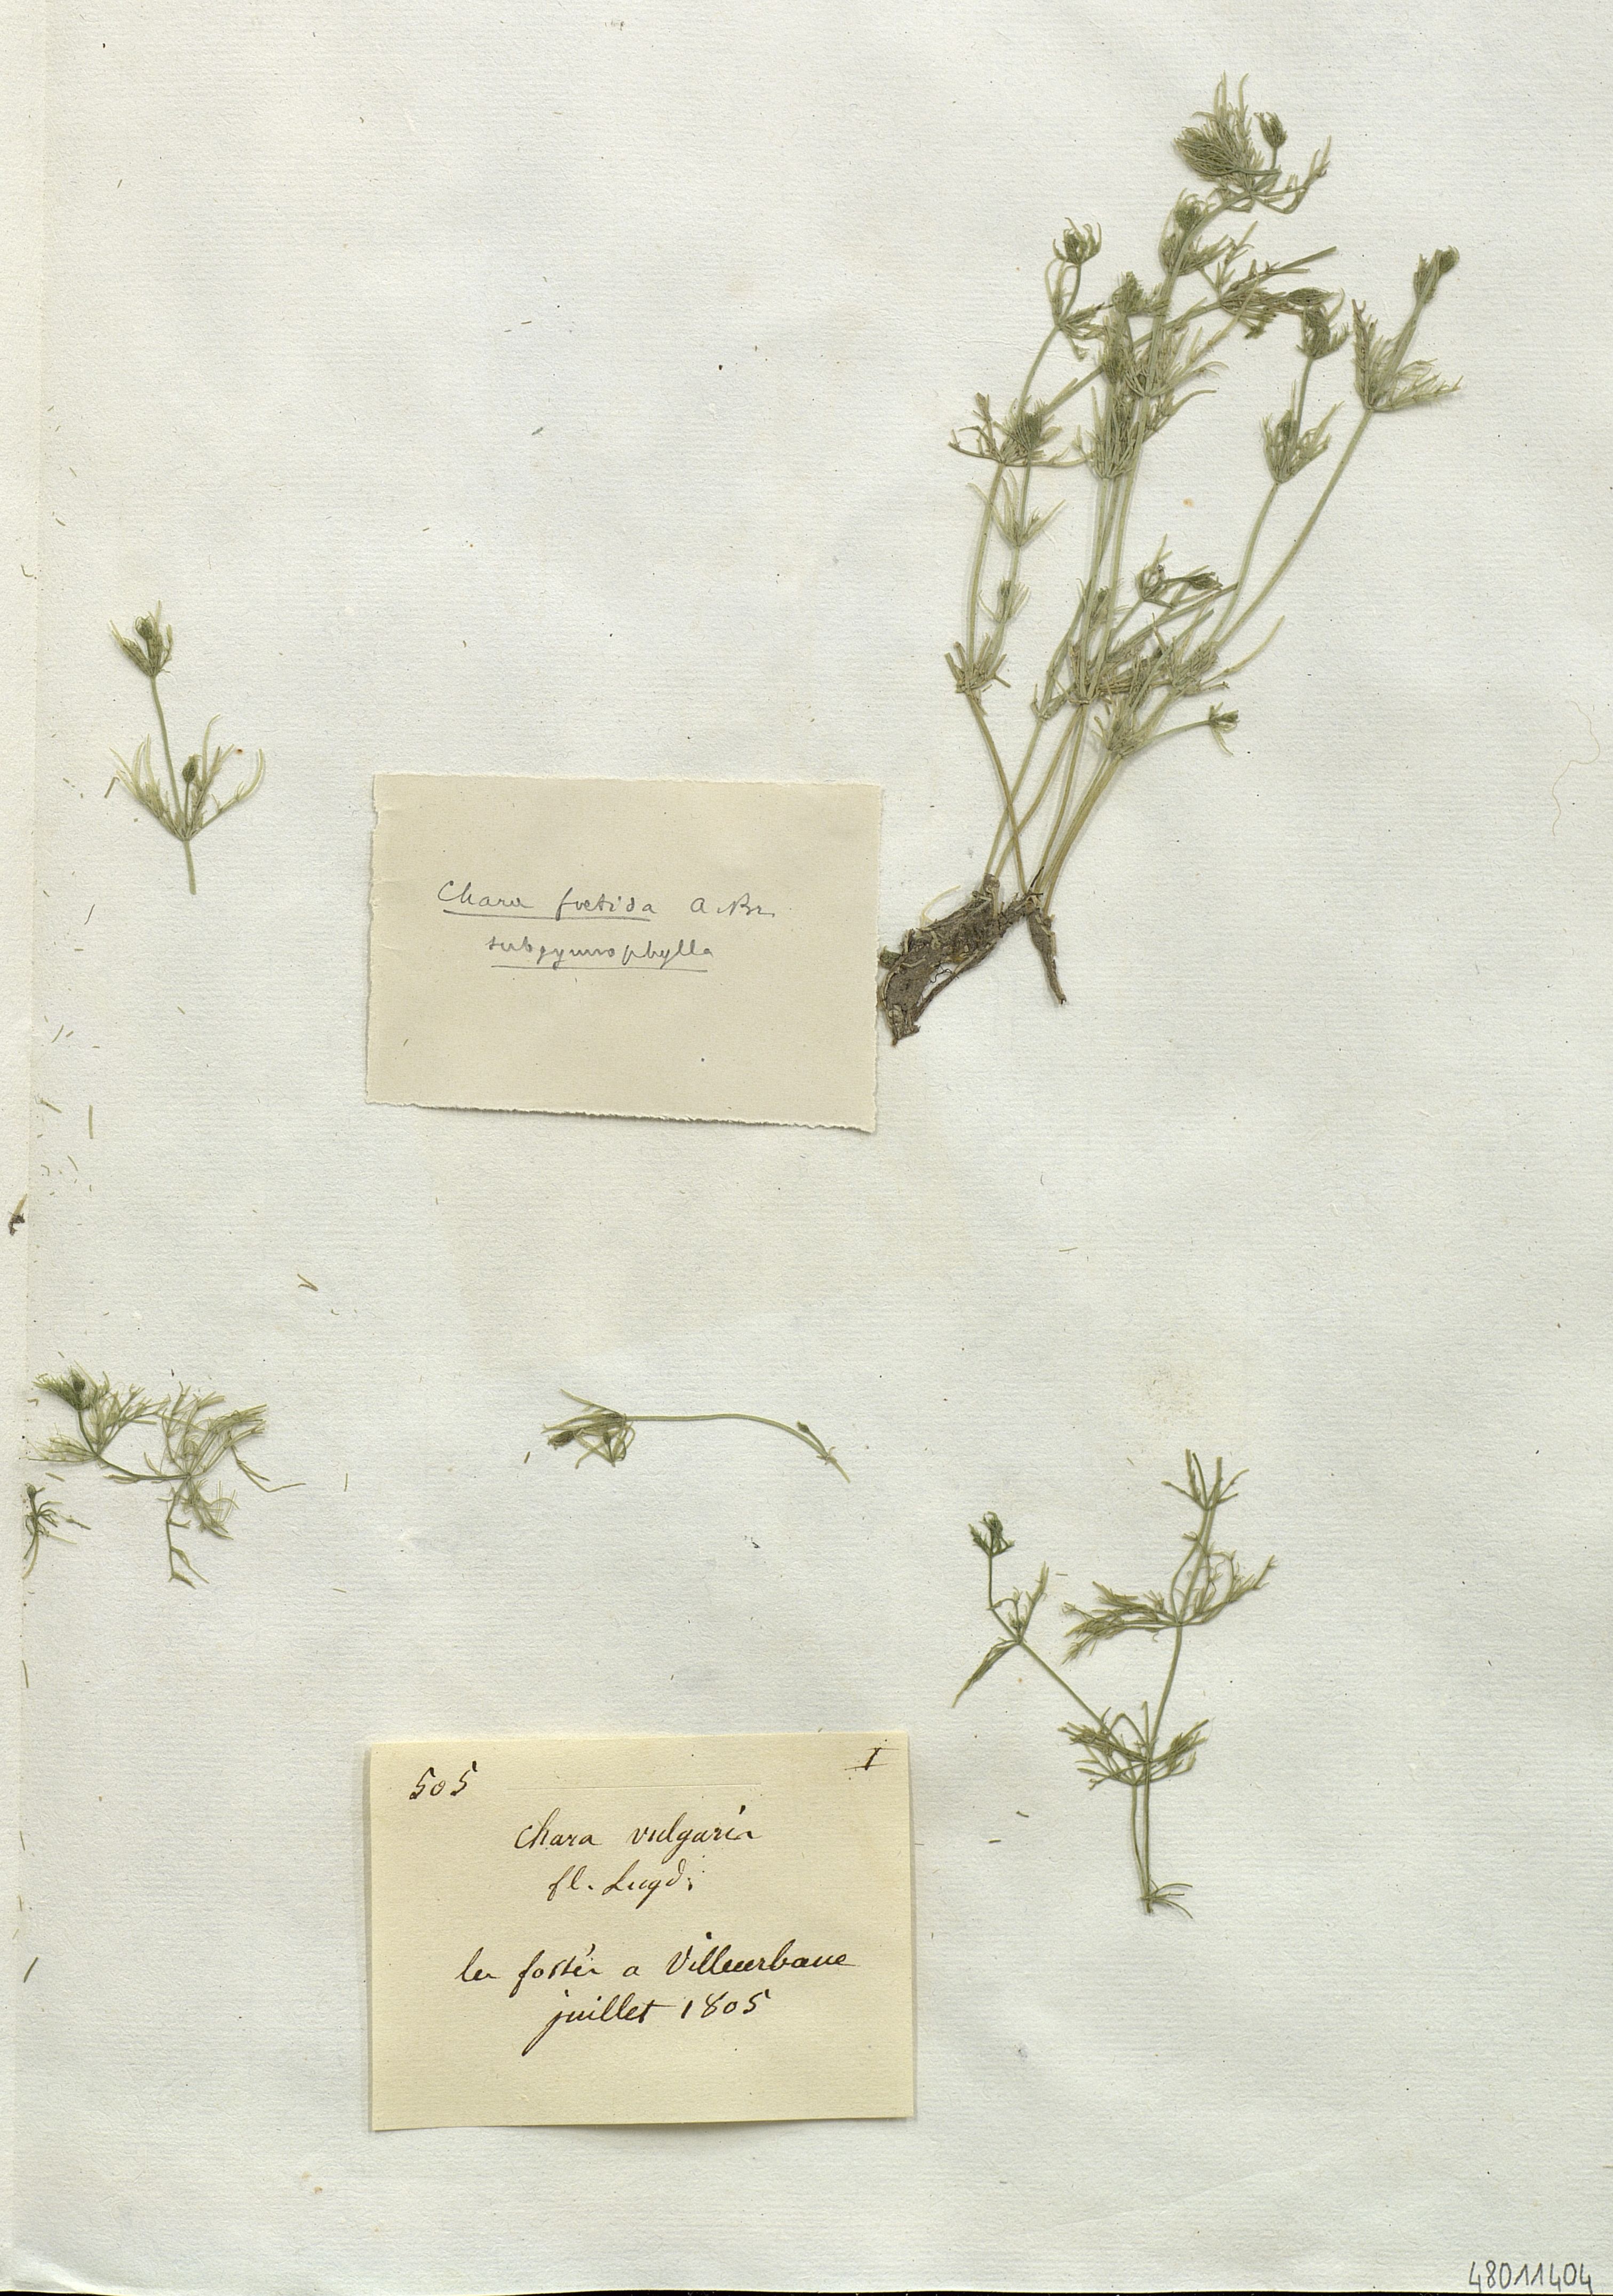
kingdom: Plantae
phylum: Charophyta
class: Charophyceae
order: Charales
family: Characeae
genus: Chara
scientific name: Chara vulgaris
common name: Common stonewort
